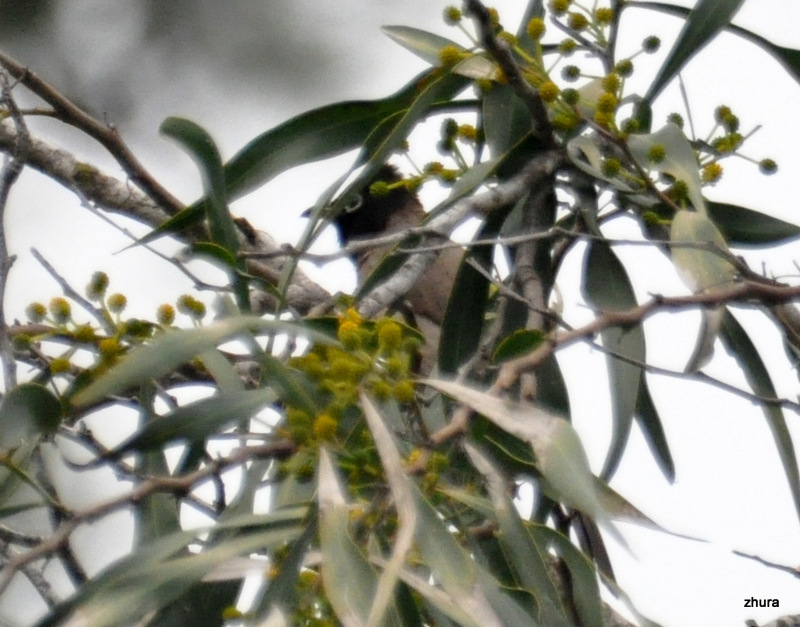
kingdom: Animalia
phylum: Chordata
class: Aves
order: Passeriformes
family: Pycnonotidae
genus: Pycnonotus
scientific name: Pycnonotus xanthopygos
